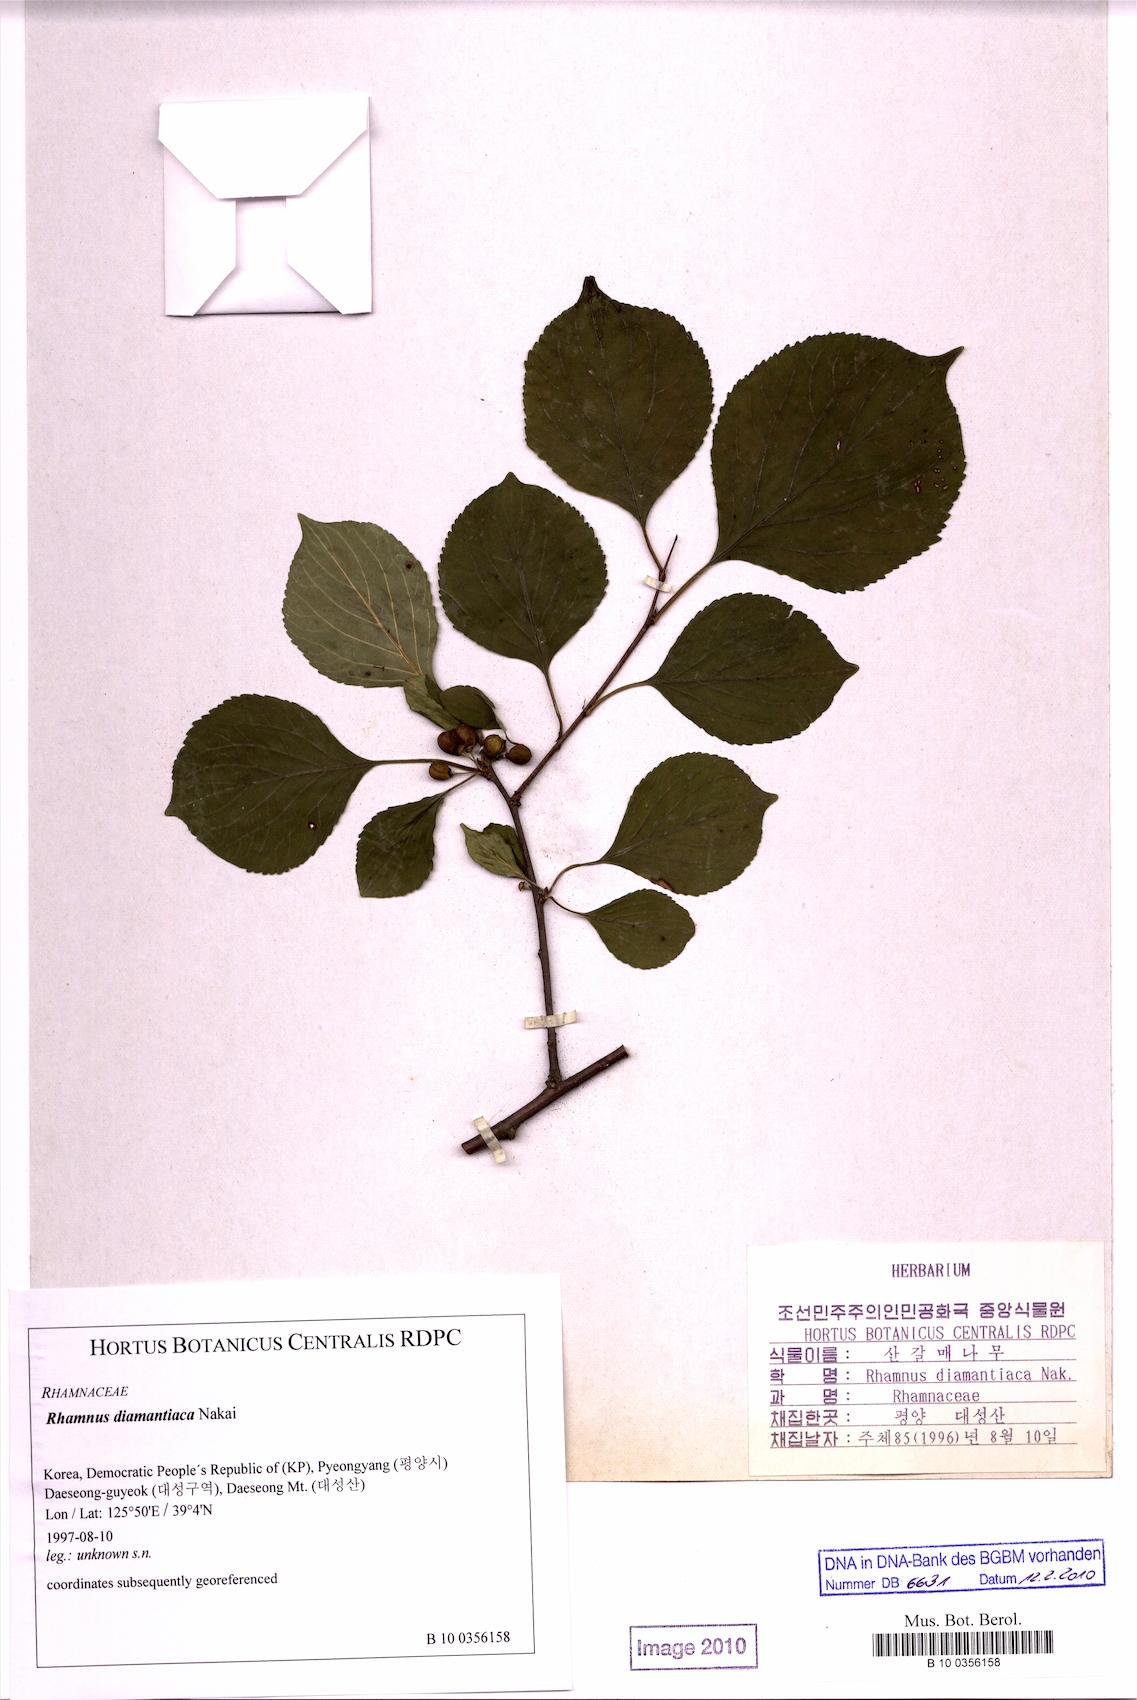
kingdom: Plantae
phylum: Tracheophyta
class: Magnoliopsida
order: Rosales
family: Rhamnaceae
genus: Rhamnus
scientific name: Rhamnus rugulosa
